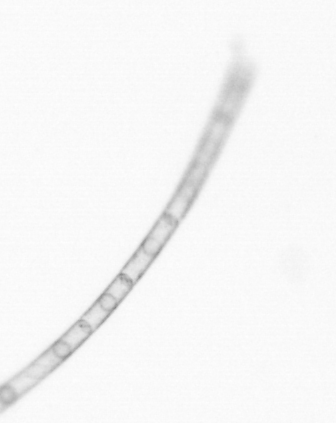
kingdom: Chromista
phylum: Ochrophyta
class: Bacillariophyceae
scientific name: Bacillariophyceae
